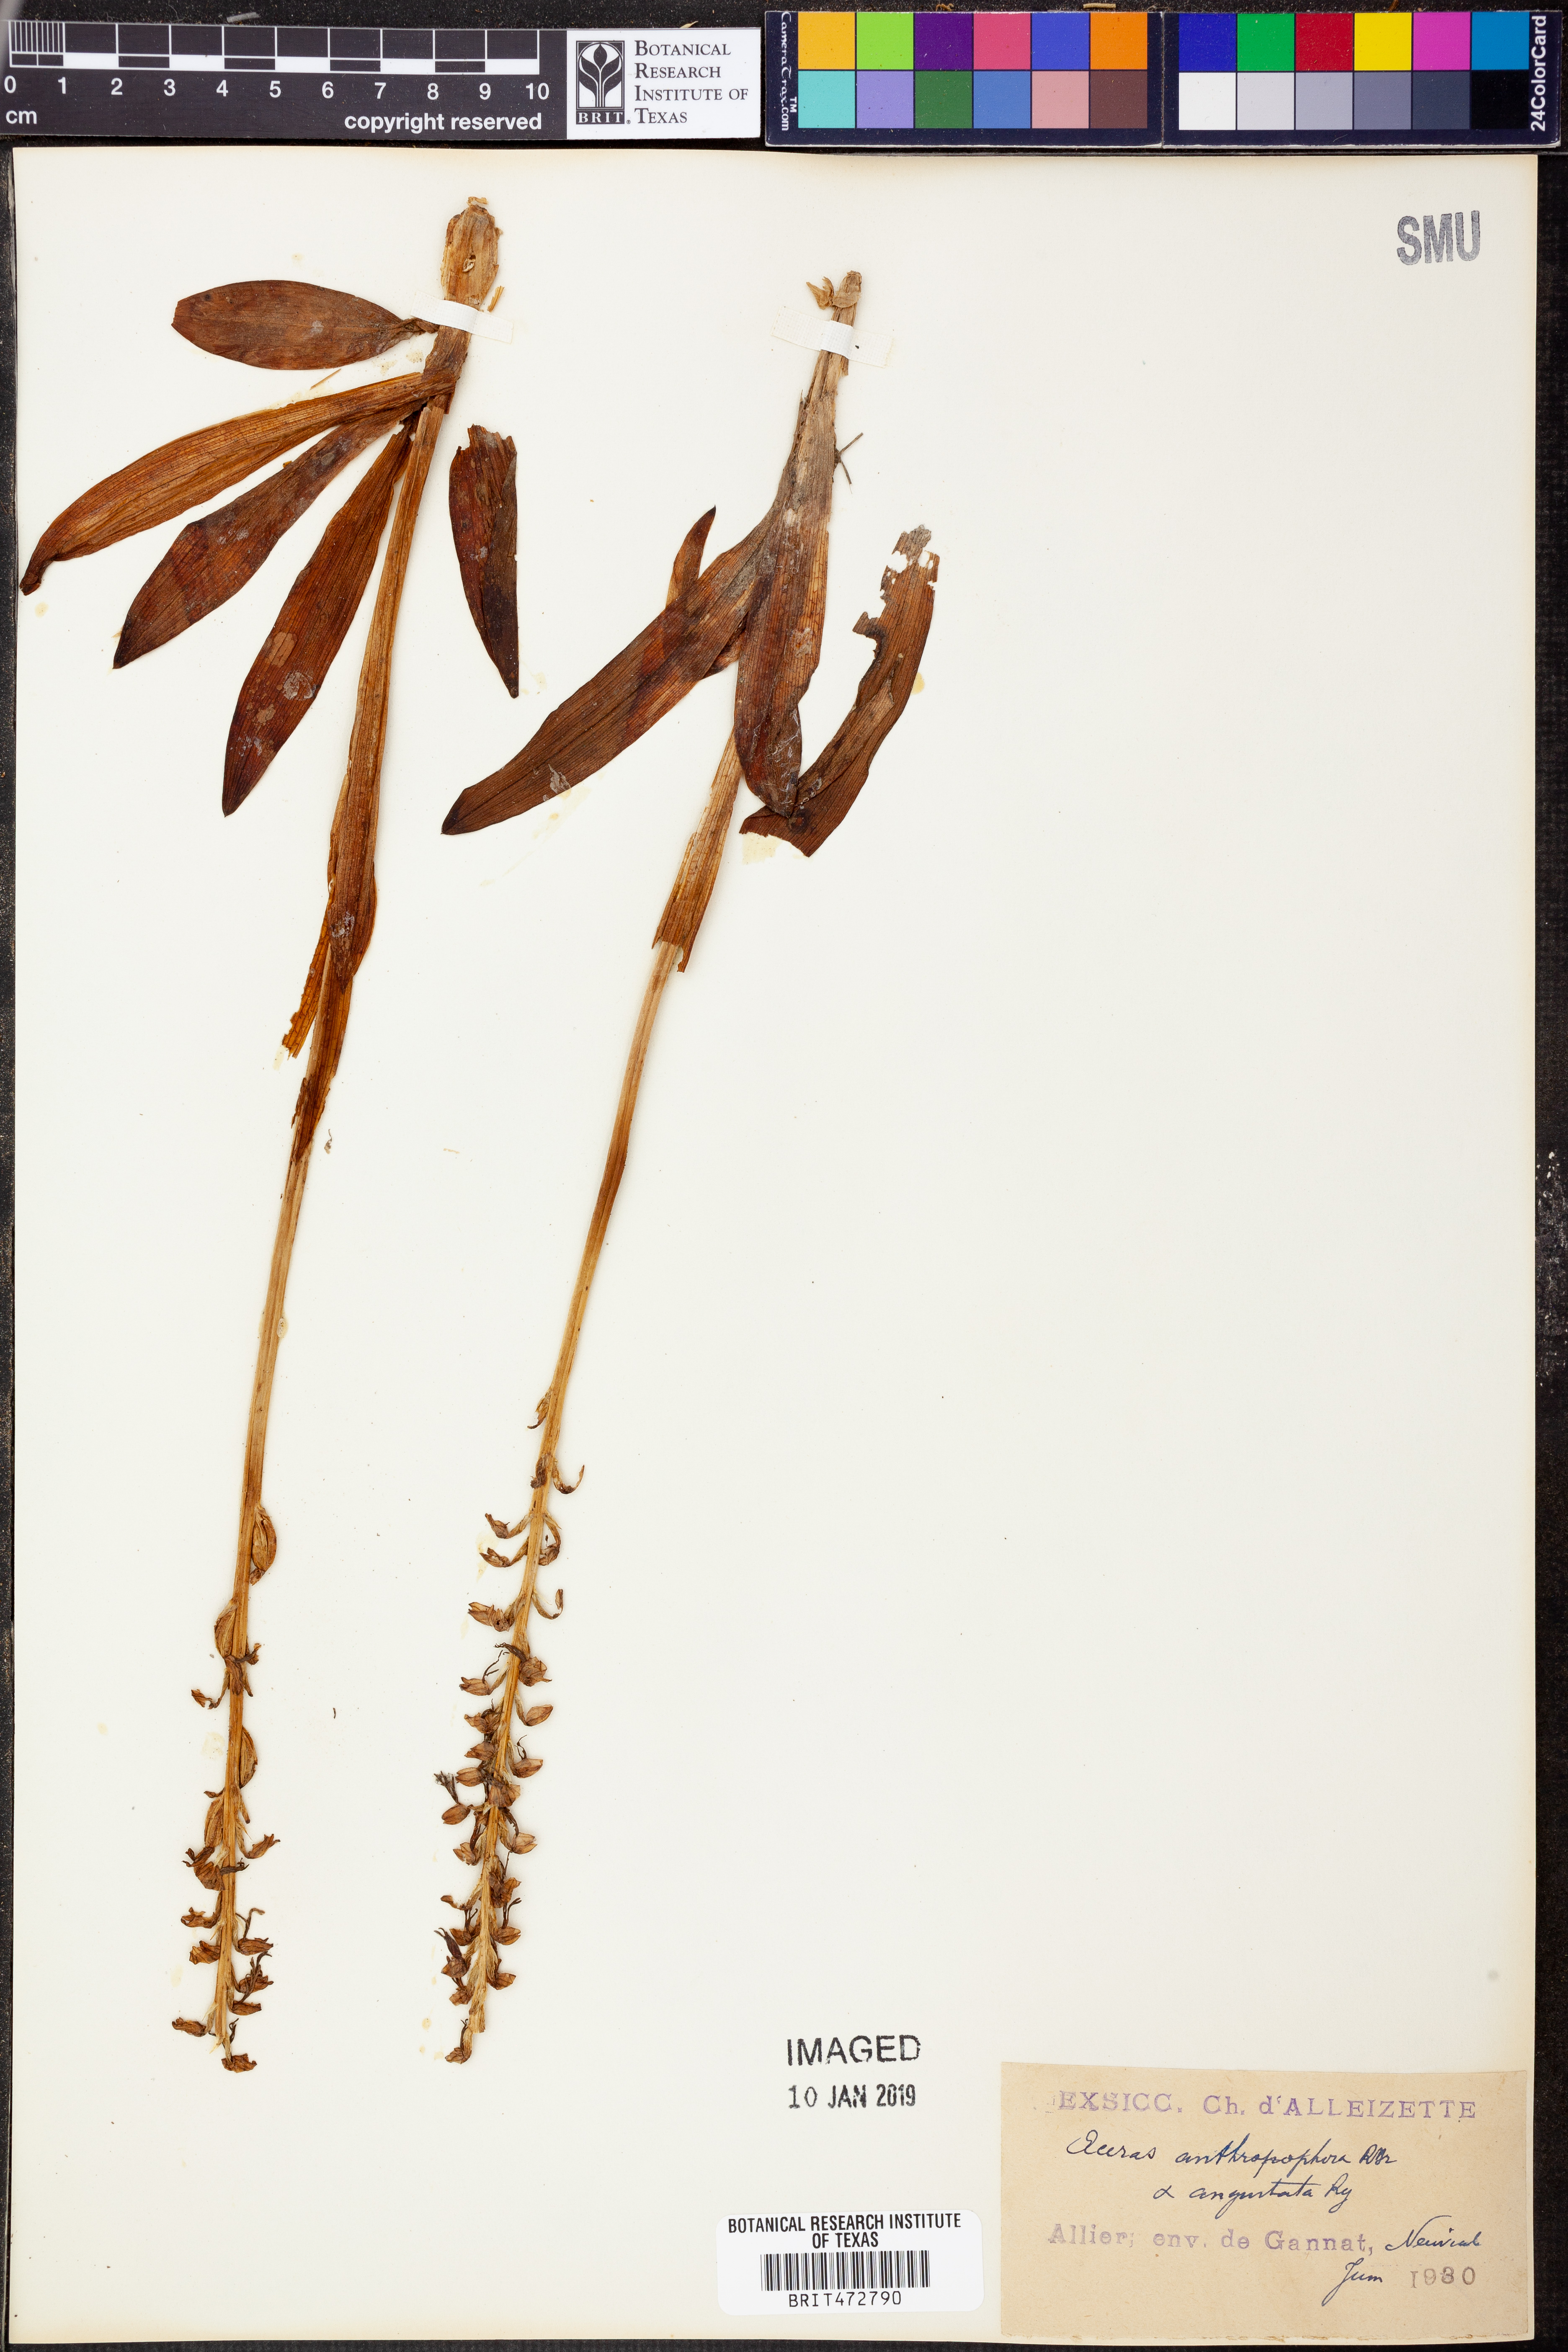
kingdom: Plantae
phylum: Tracheophyta
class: Liliopsida
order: Asparagales
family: Orchidaceae
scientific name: Orchidaceae
